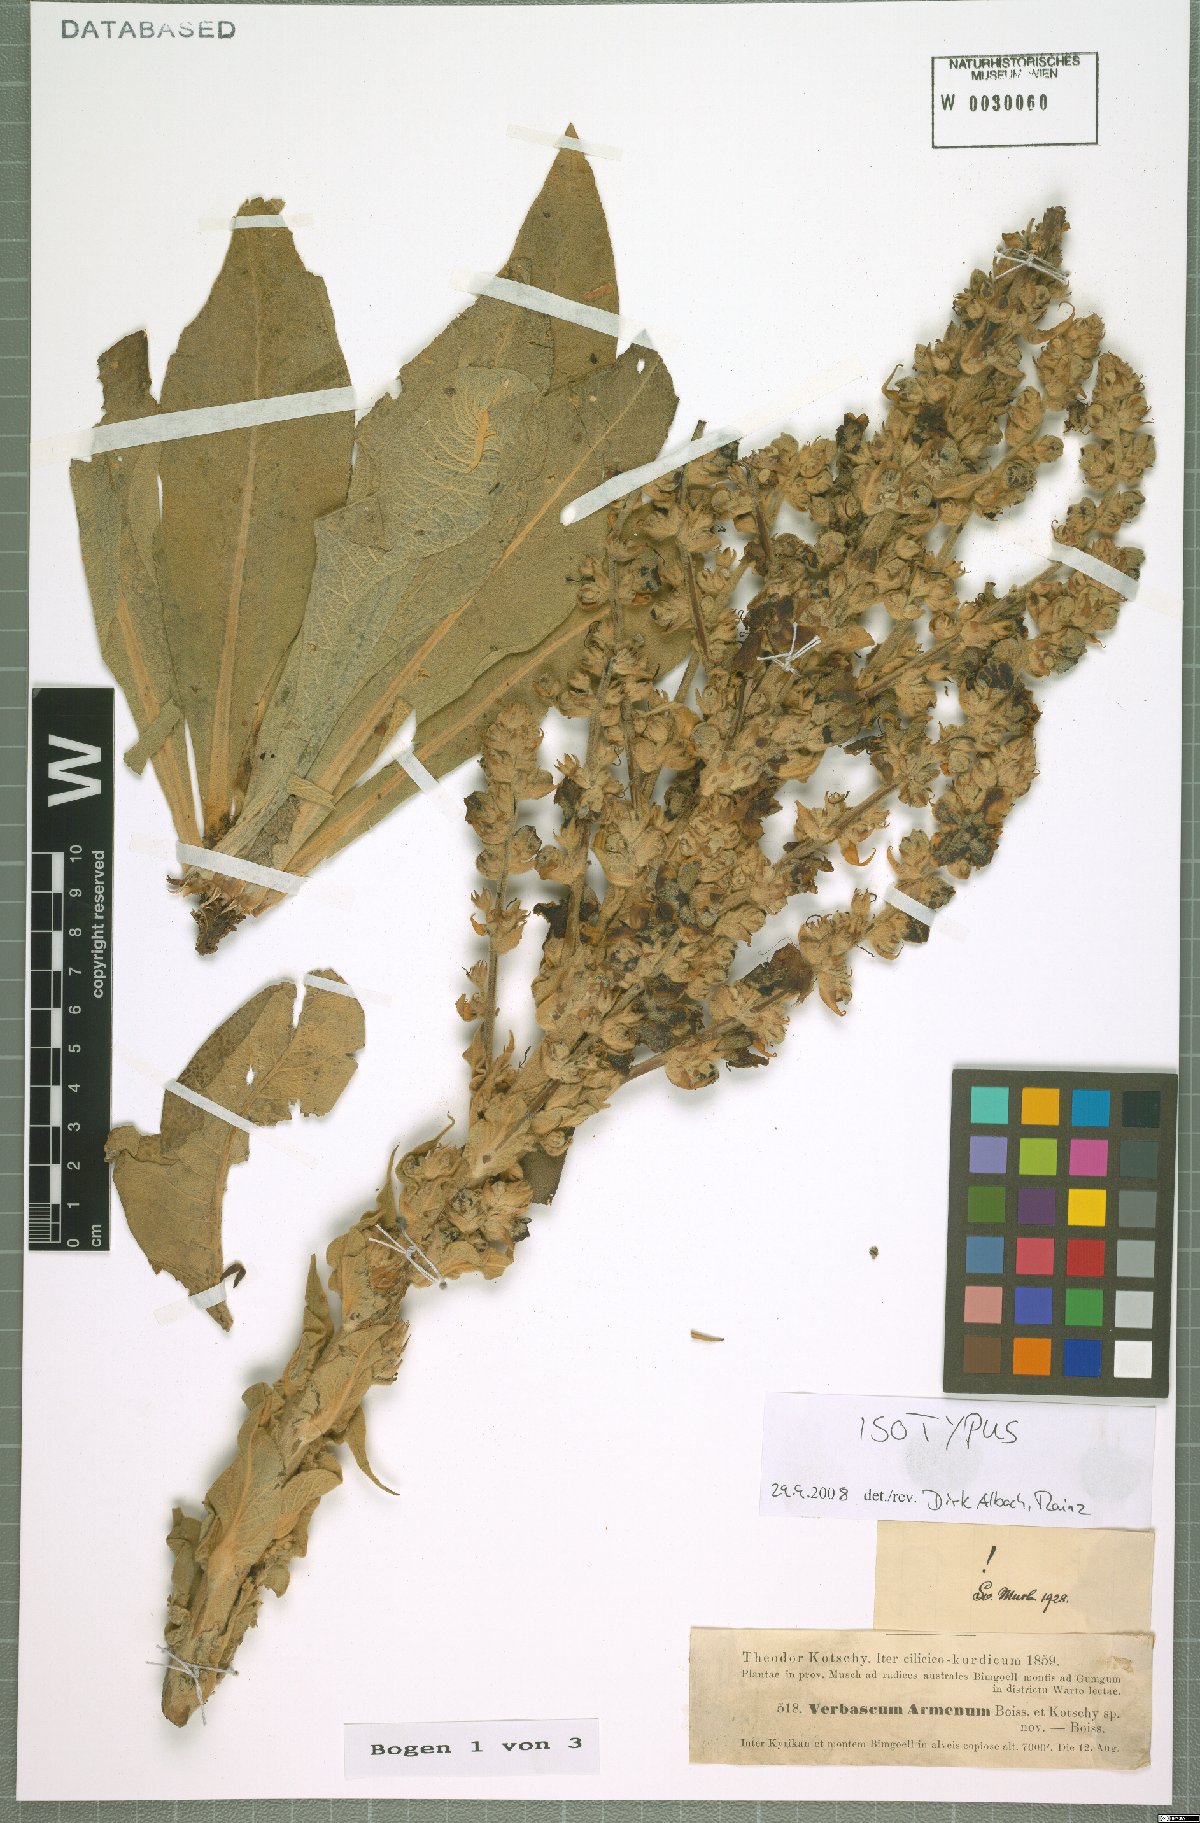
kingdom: Plantae
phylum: Tracheophyta
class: Magnoliopsida
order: Lamiales
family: Scrophulariaceae
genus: Verbascum
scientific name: Verbascum armenum
